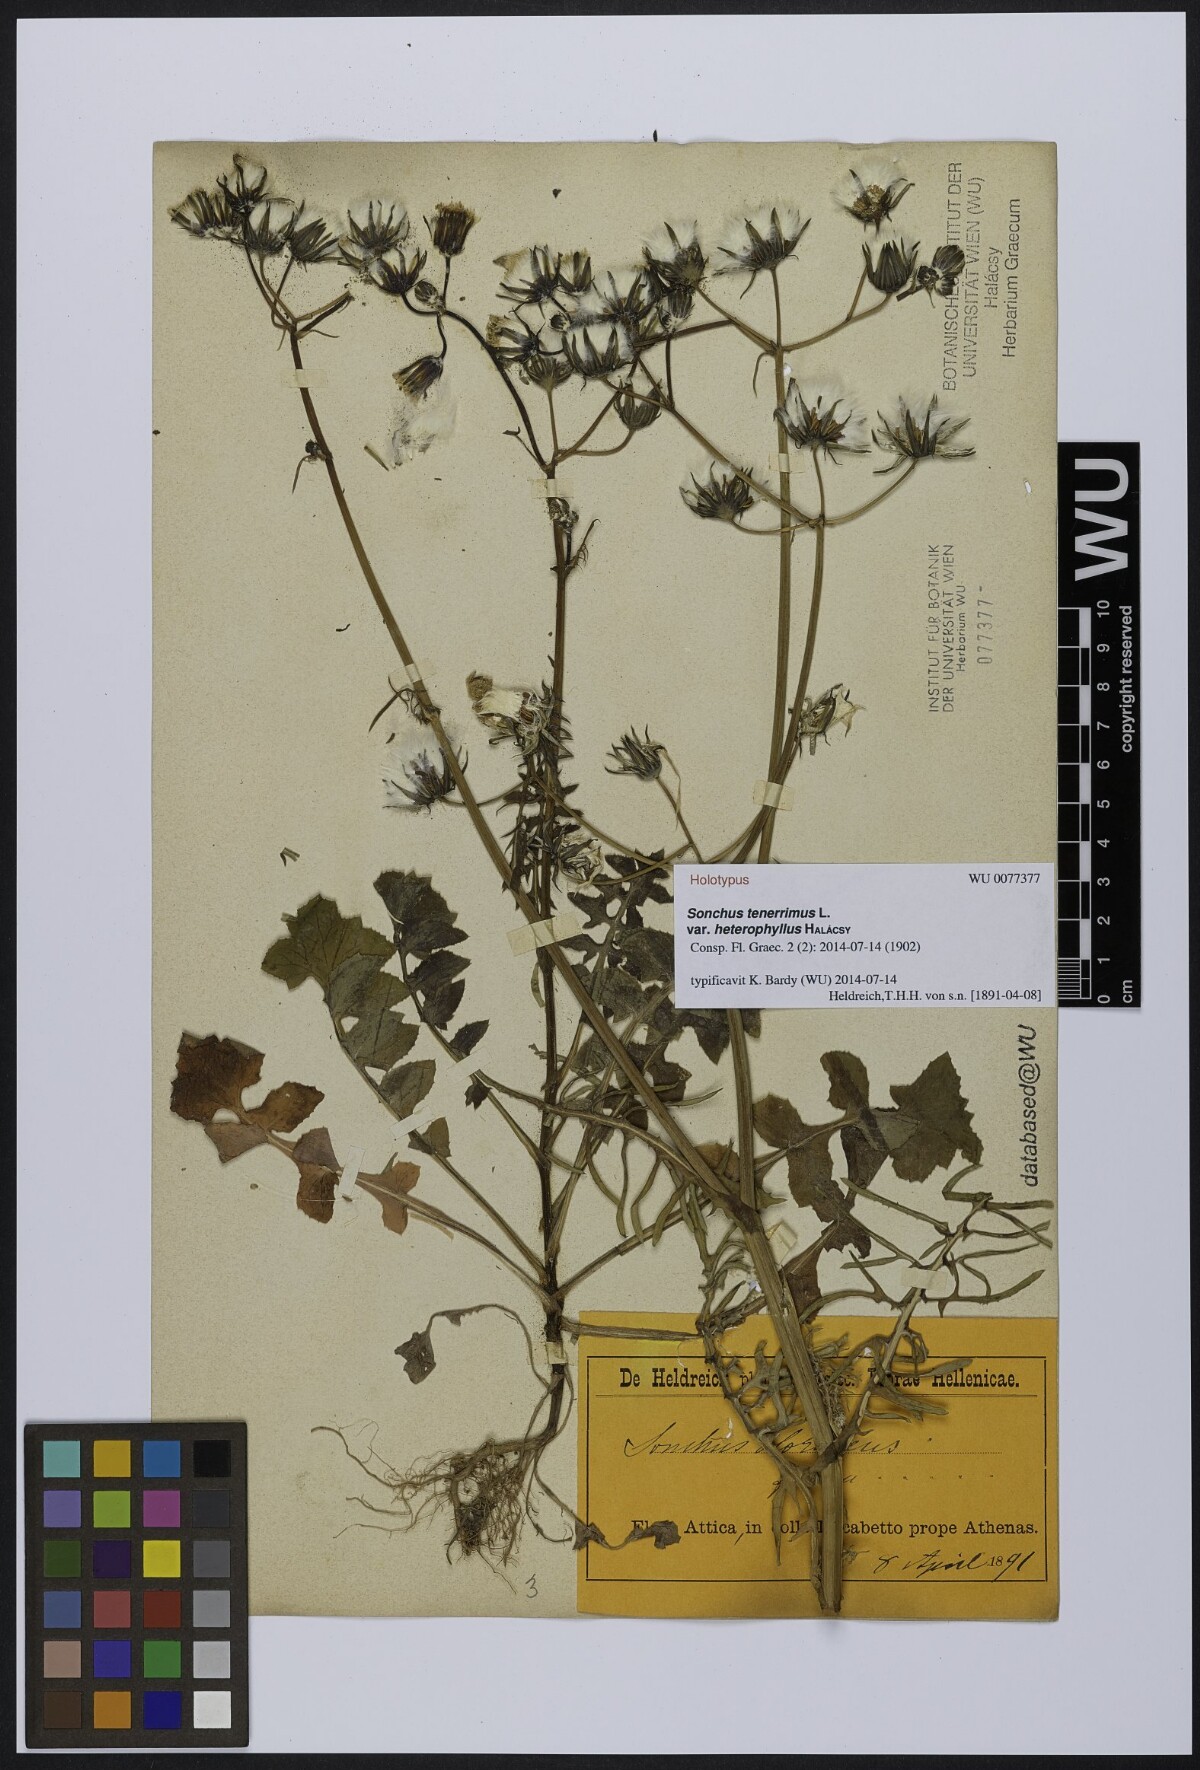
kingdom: Plantae
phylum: Tracheophyta
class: Magnoliopsida
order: Asterales
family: Asteraceae
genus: Sonchus
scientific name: Sonchus tenerrimus
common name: Clammy sowthistle
